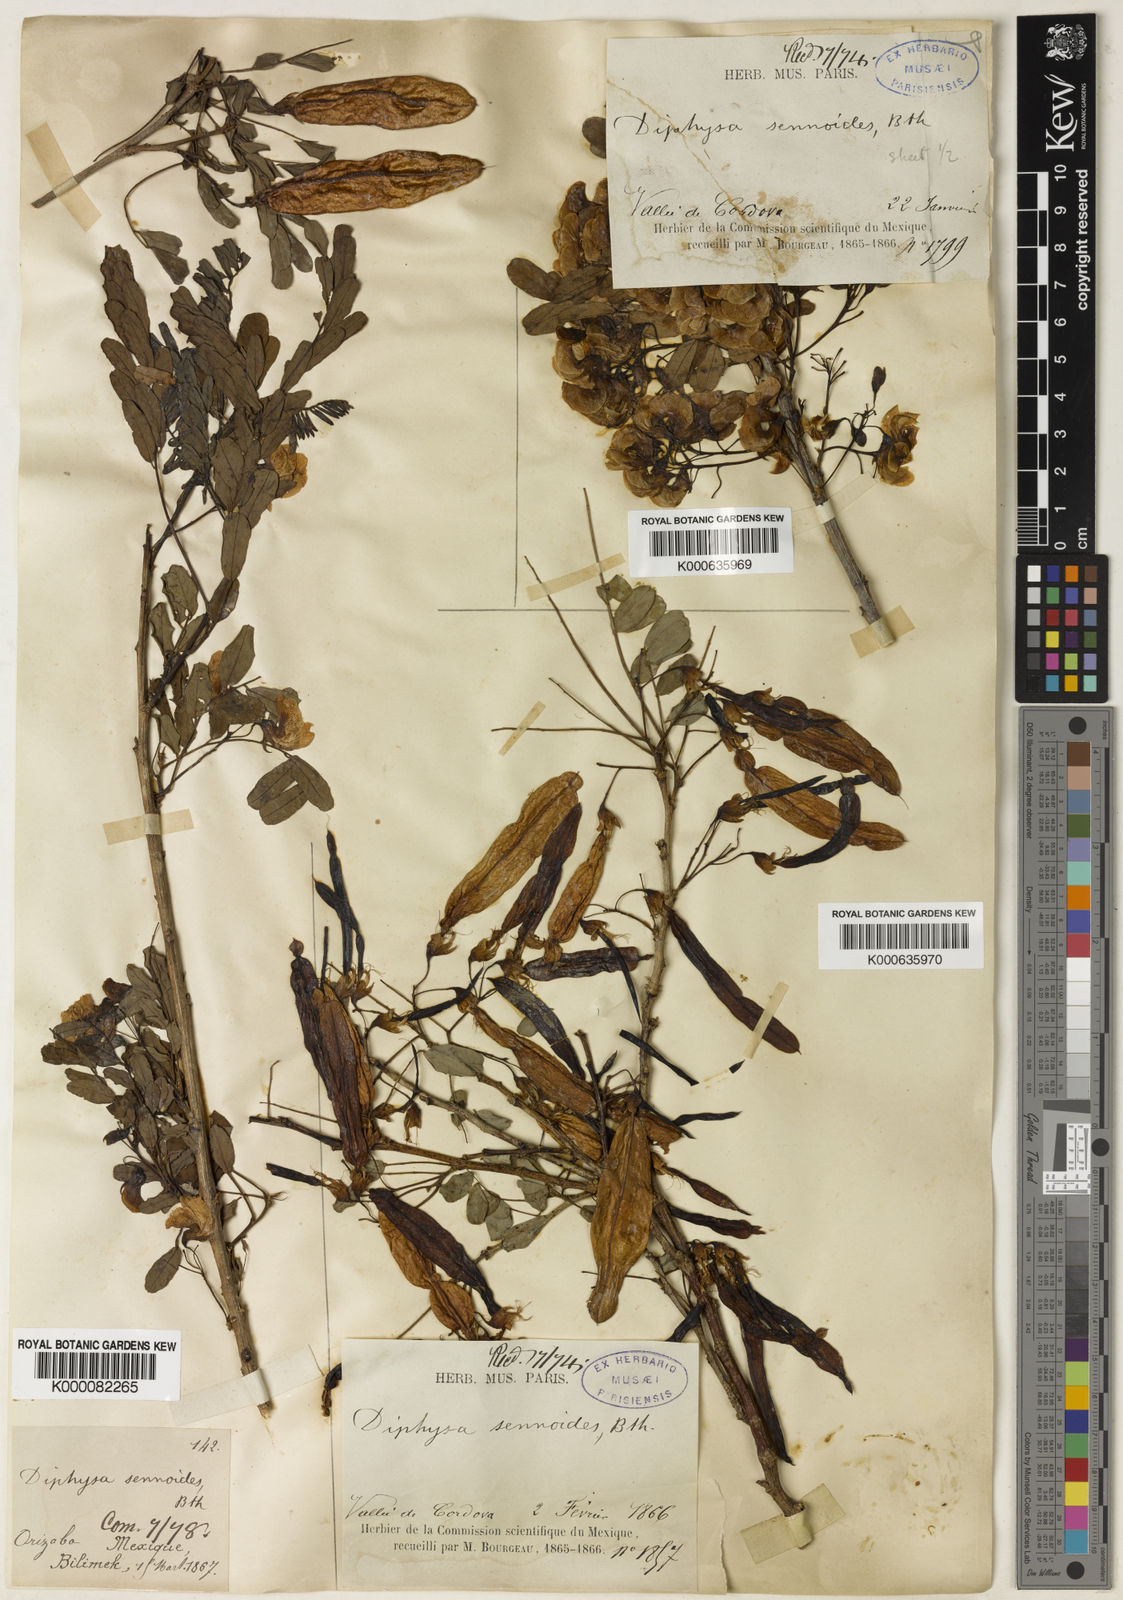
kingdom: Plantae
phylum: Tracheophyta
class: Magnoliopsida
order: Fabales
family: Fabaceae
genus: Diphysa
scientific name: Diphysa sennoides
